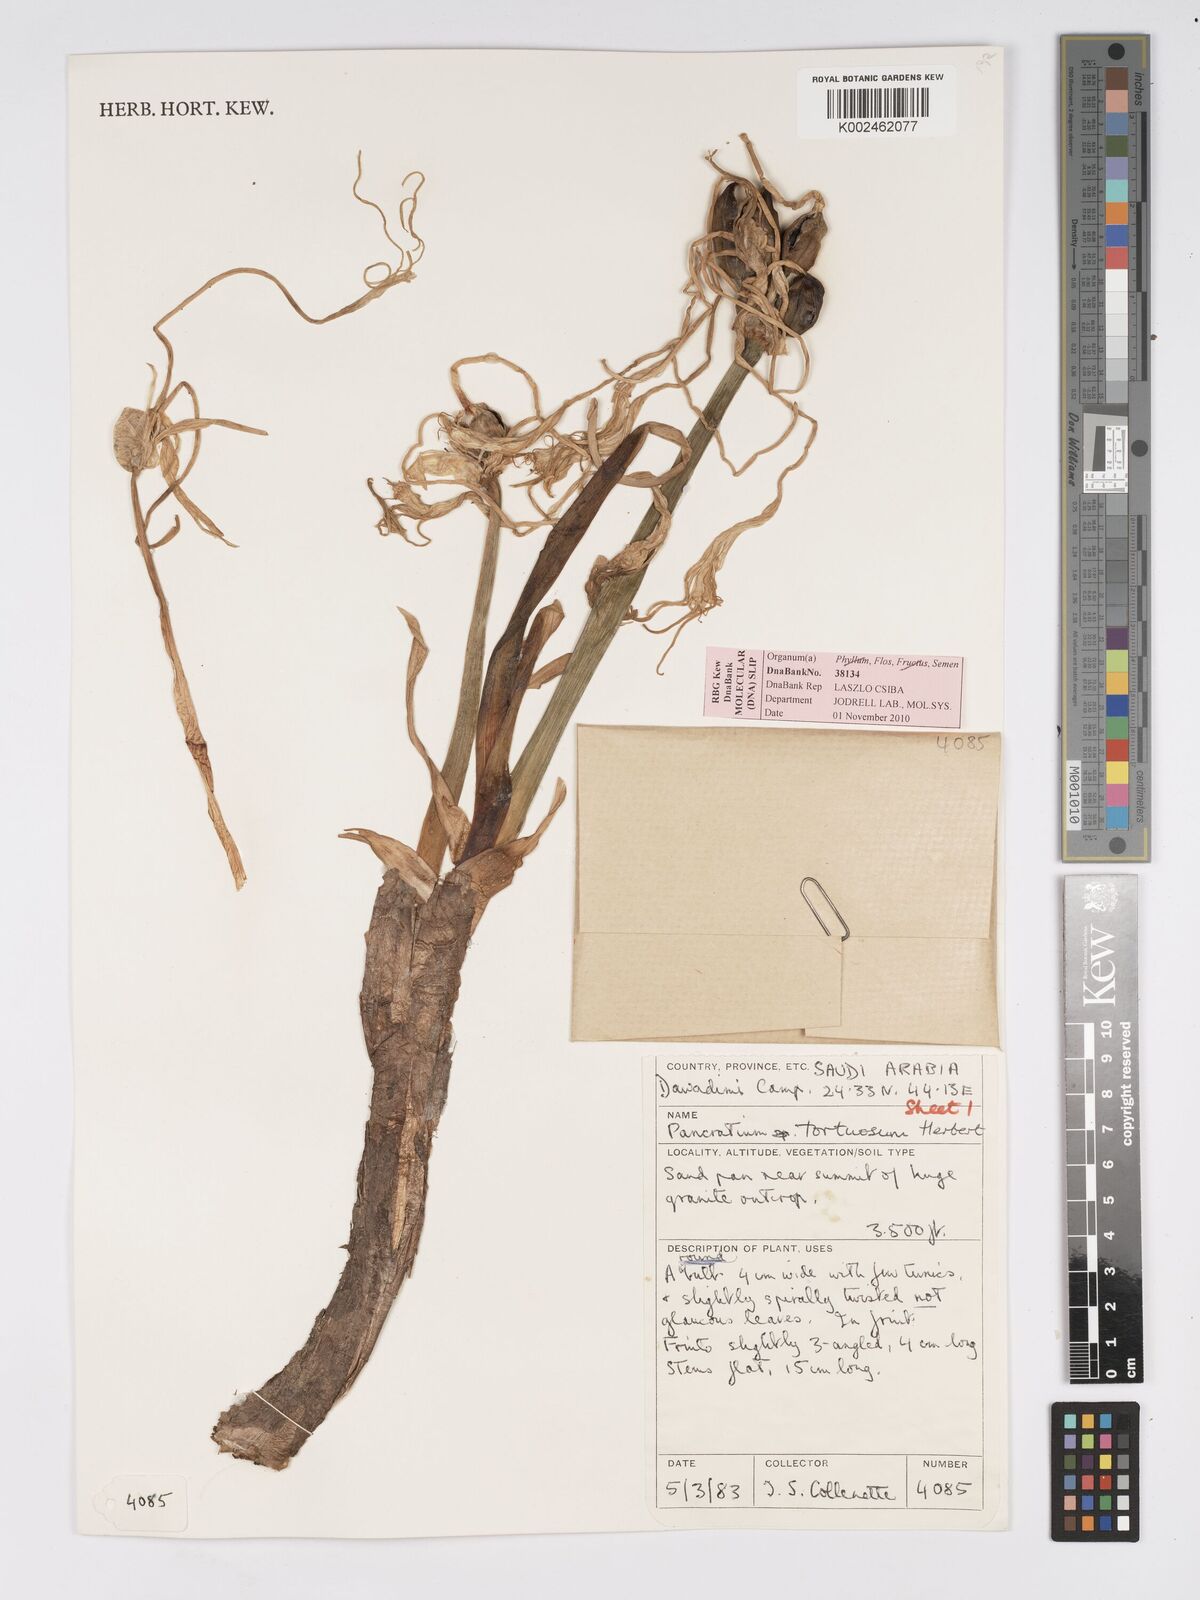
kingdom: Plantae
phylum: Tracheophyta
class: Liliopsida
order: Asparagales
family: Amaryllidaceae
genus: Pancratium
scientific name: Pancratium tortuosum
